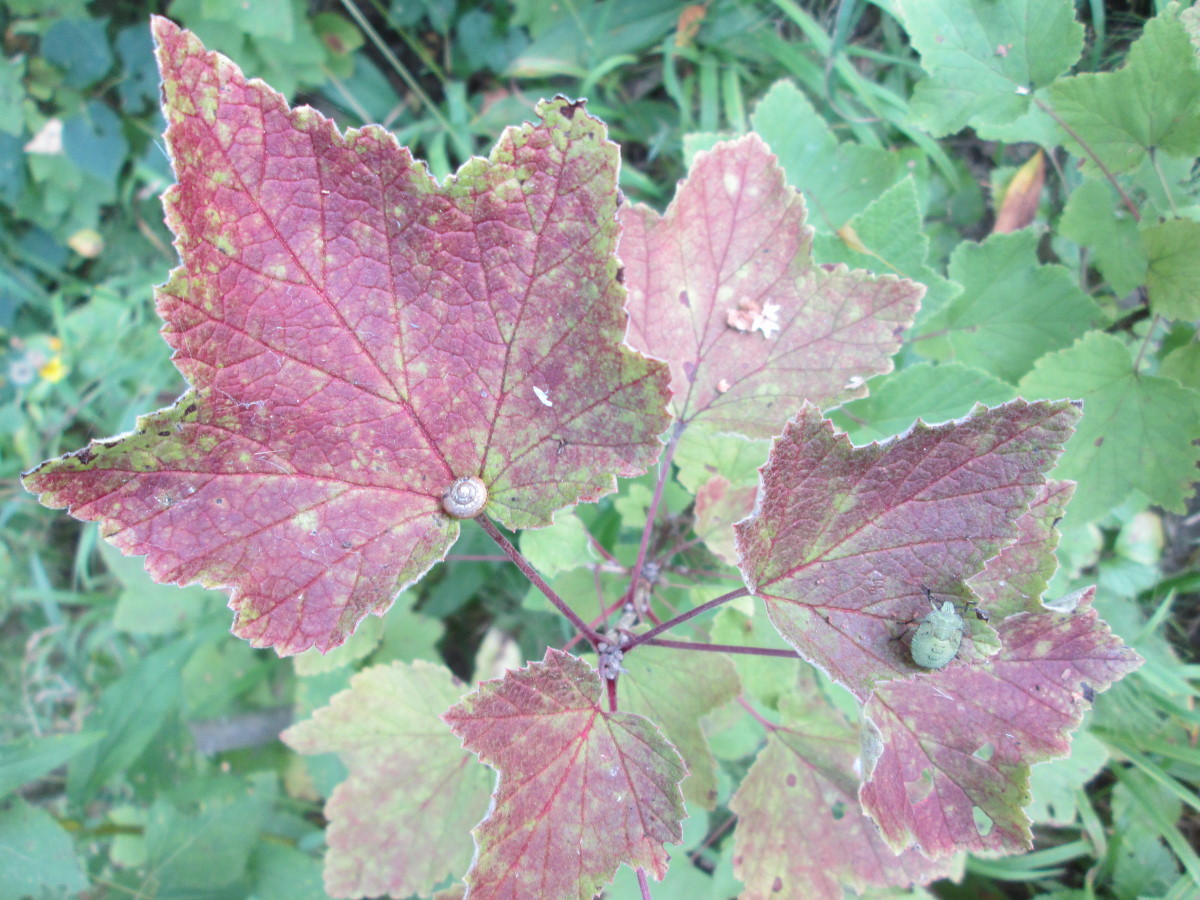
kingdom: Plantae
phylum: Tracheophyta
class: Magnoliopsida
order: Saxifragales
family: Grossulariaceae
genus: Ribes
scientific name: Ribes
